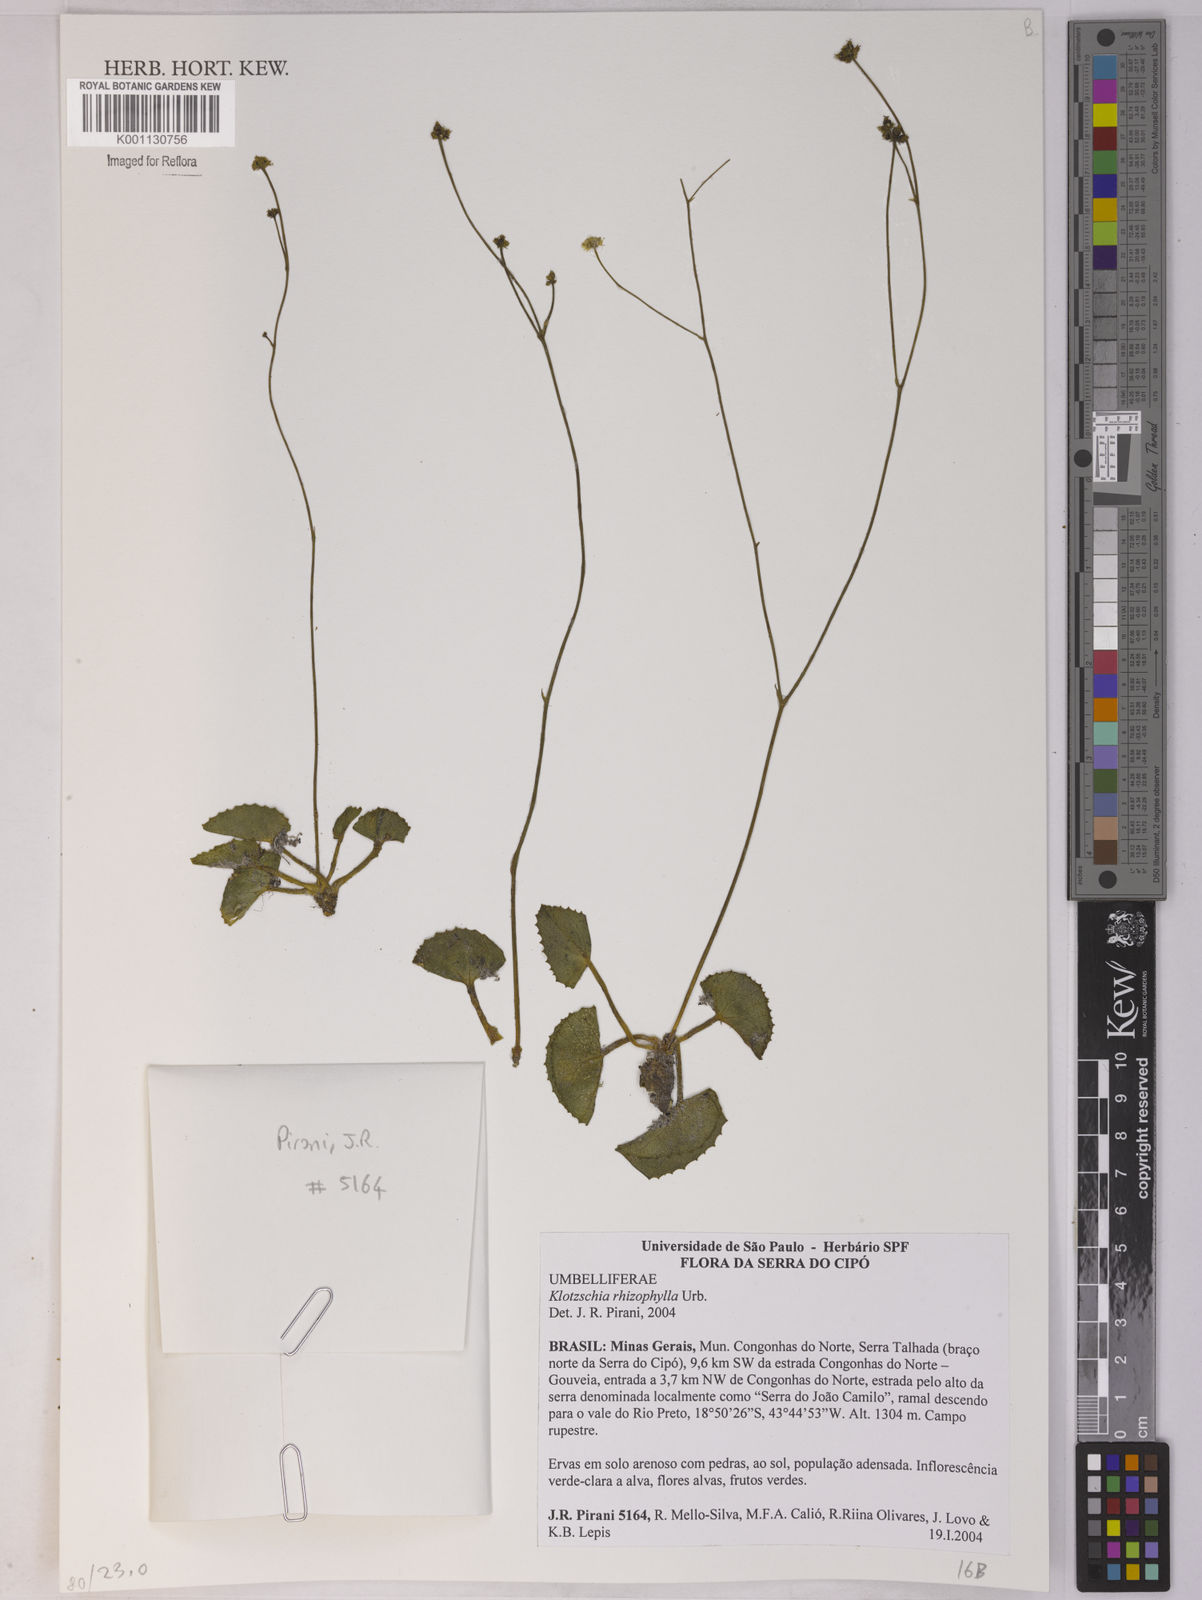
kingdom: Plantae
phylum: Tracheophyta
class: Magnoliopsida
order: Apiales
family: Apiaceae
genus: Klotzschia
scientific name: Klotzschia rhizophylla
